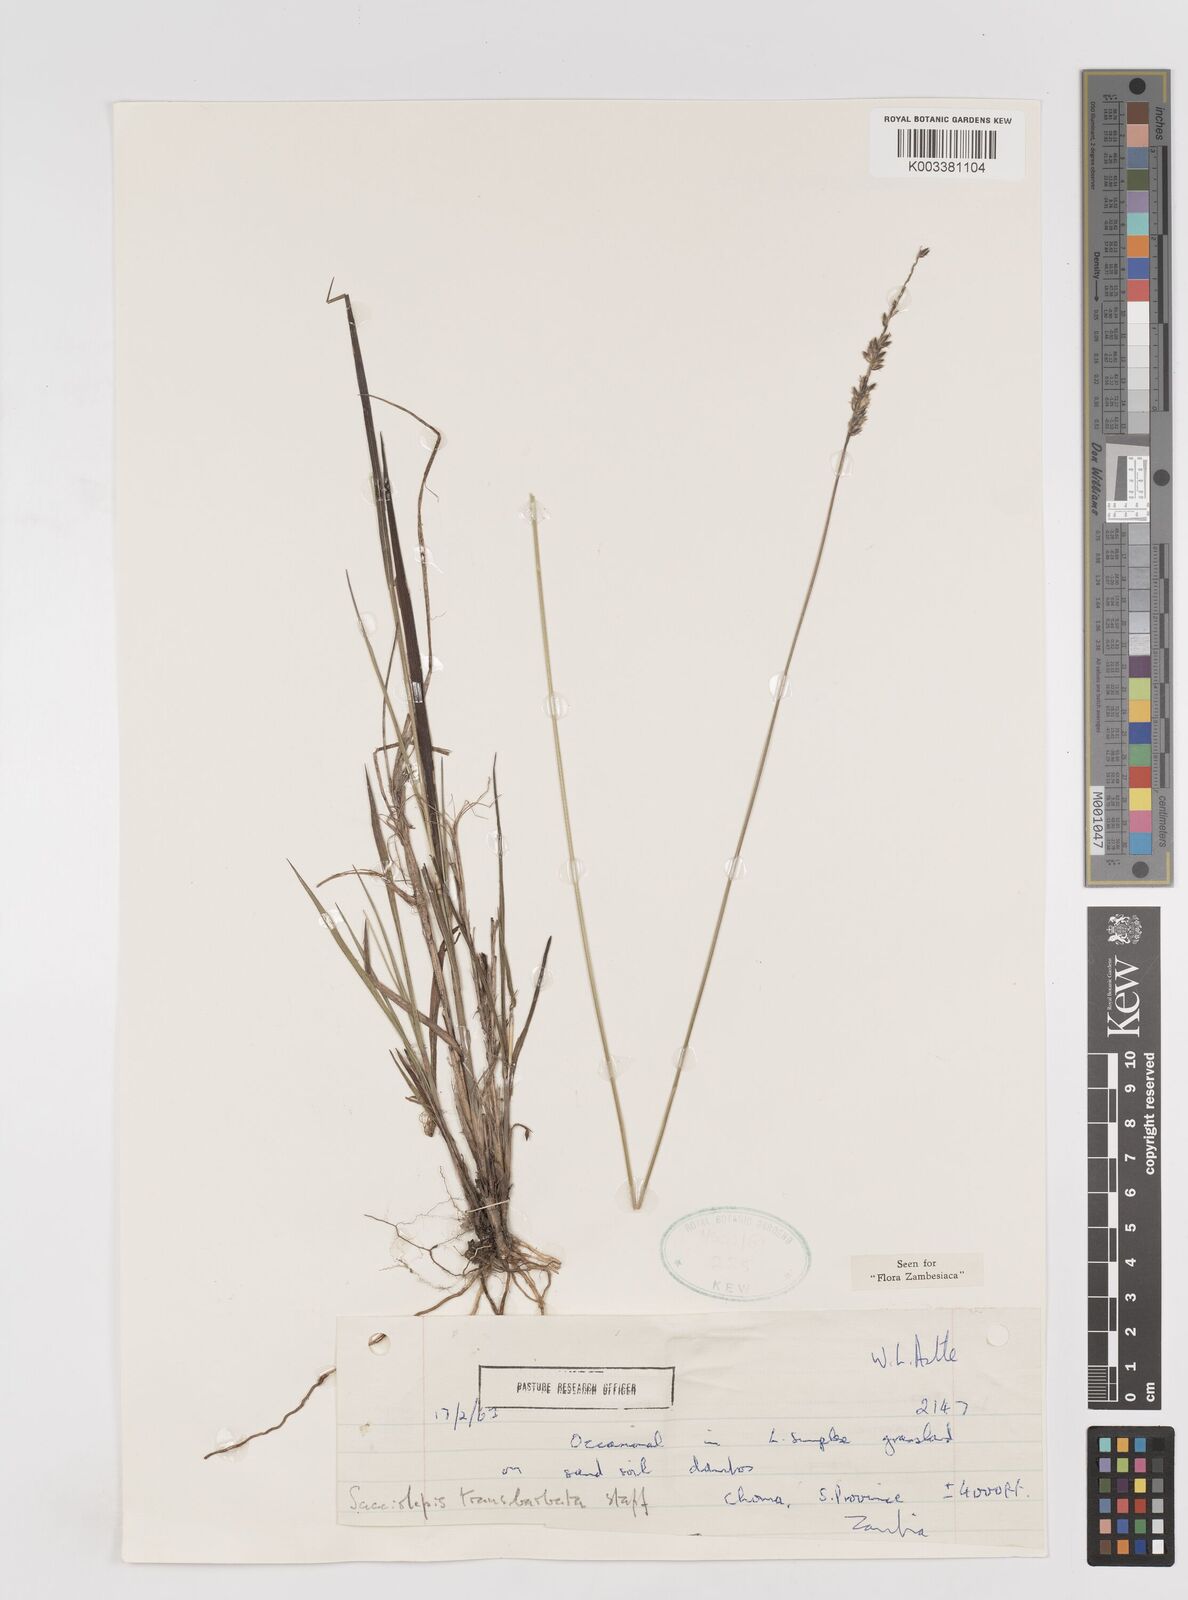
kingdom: Plantae
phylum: Tracheophyta
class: Liliopsida
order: Poales
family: Poaceae
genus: Sacciolepis
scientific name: Sacciolepis transbarbata
